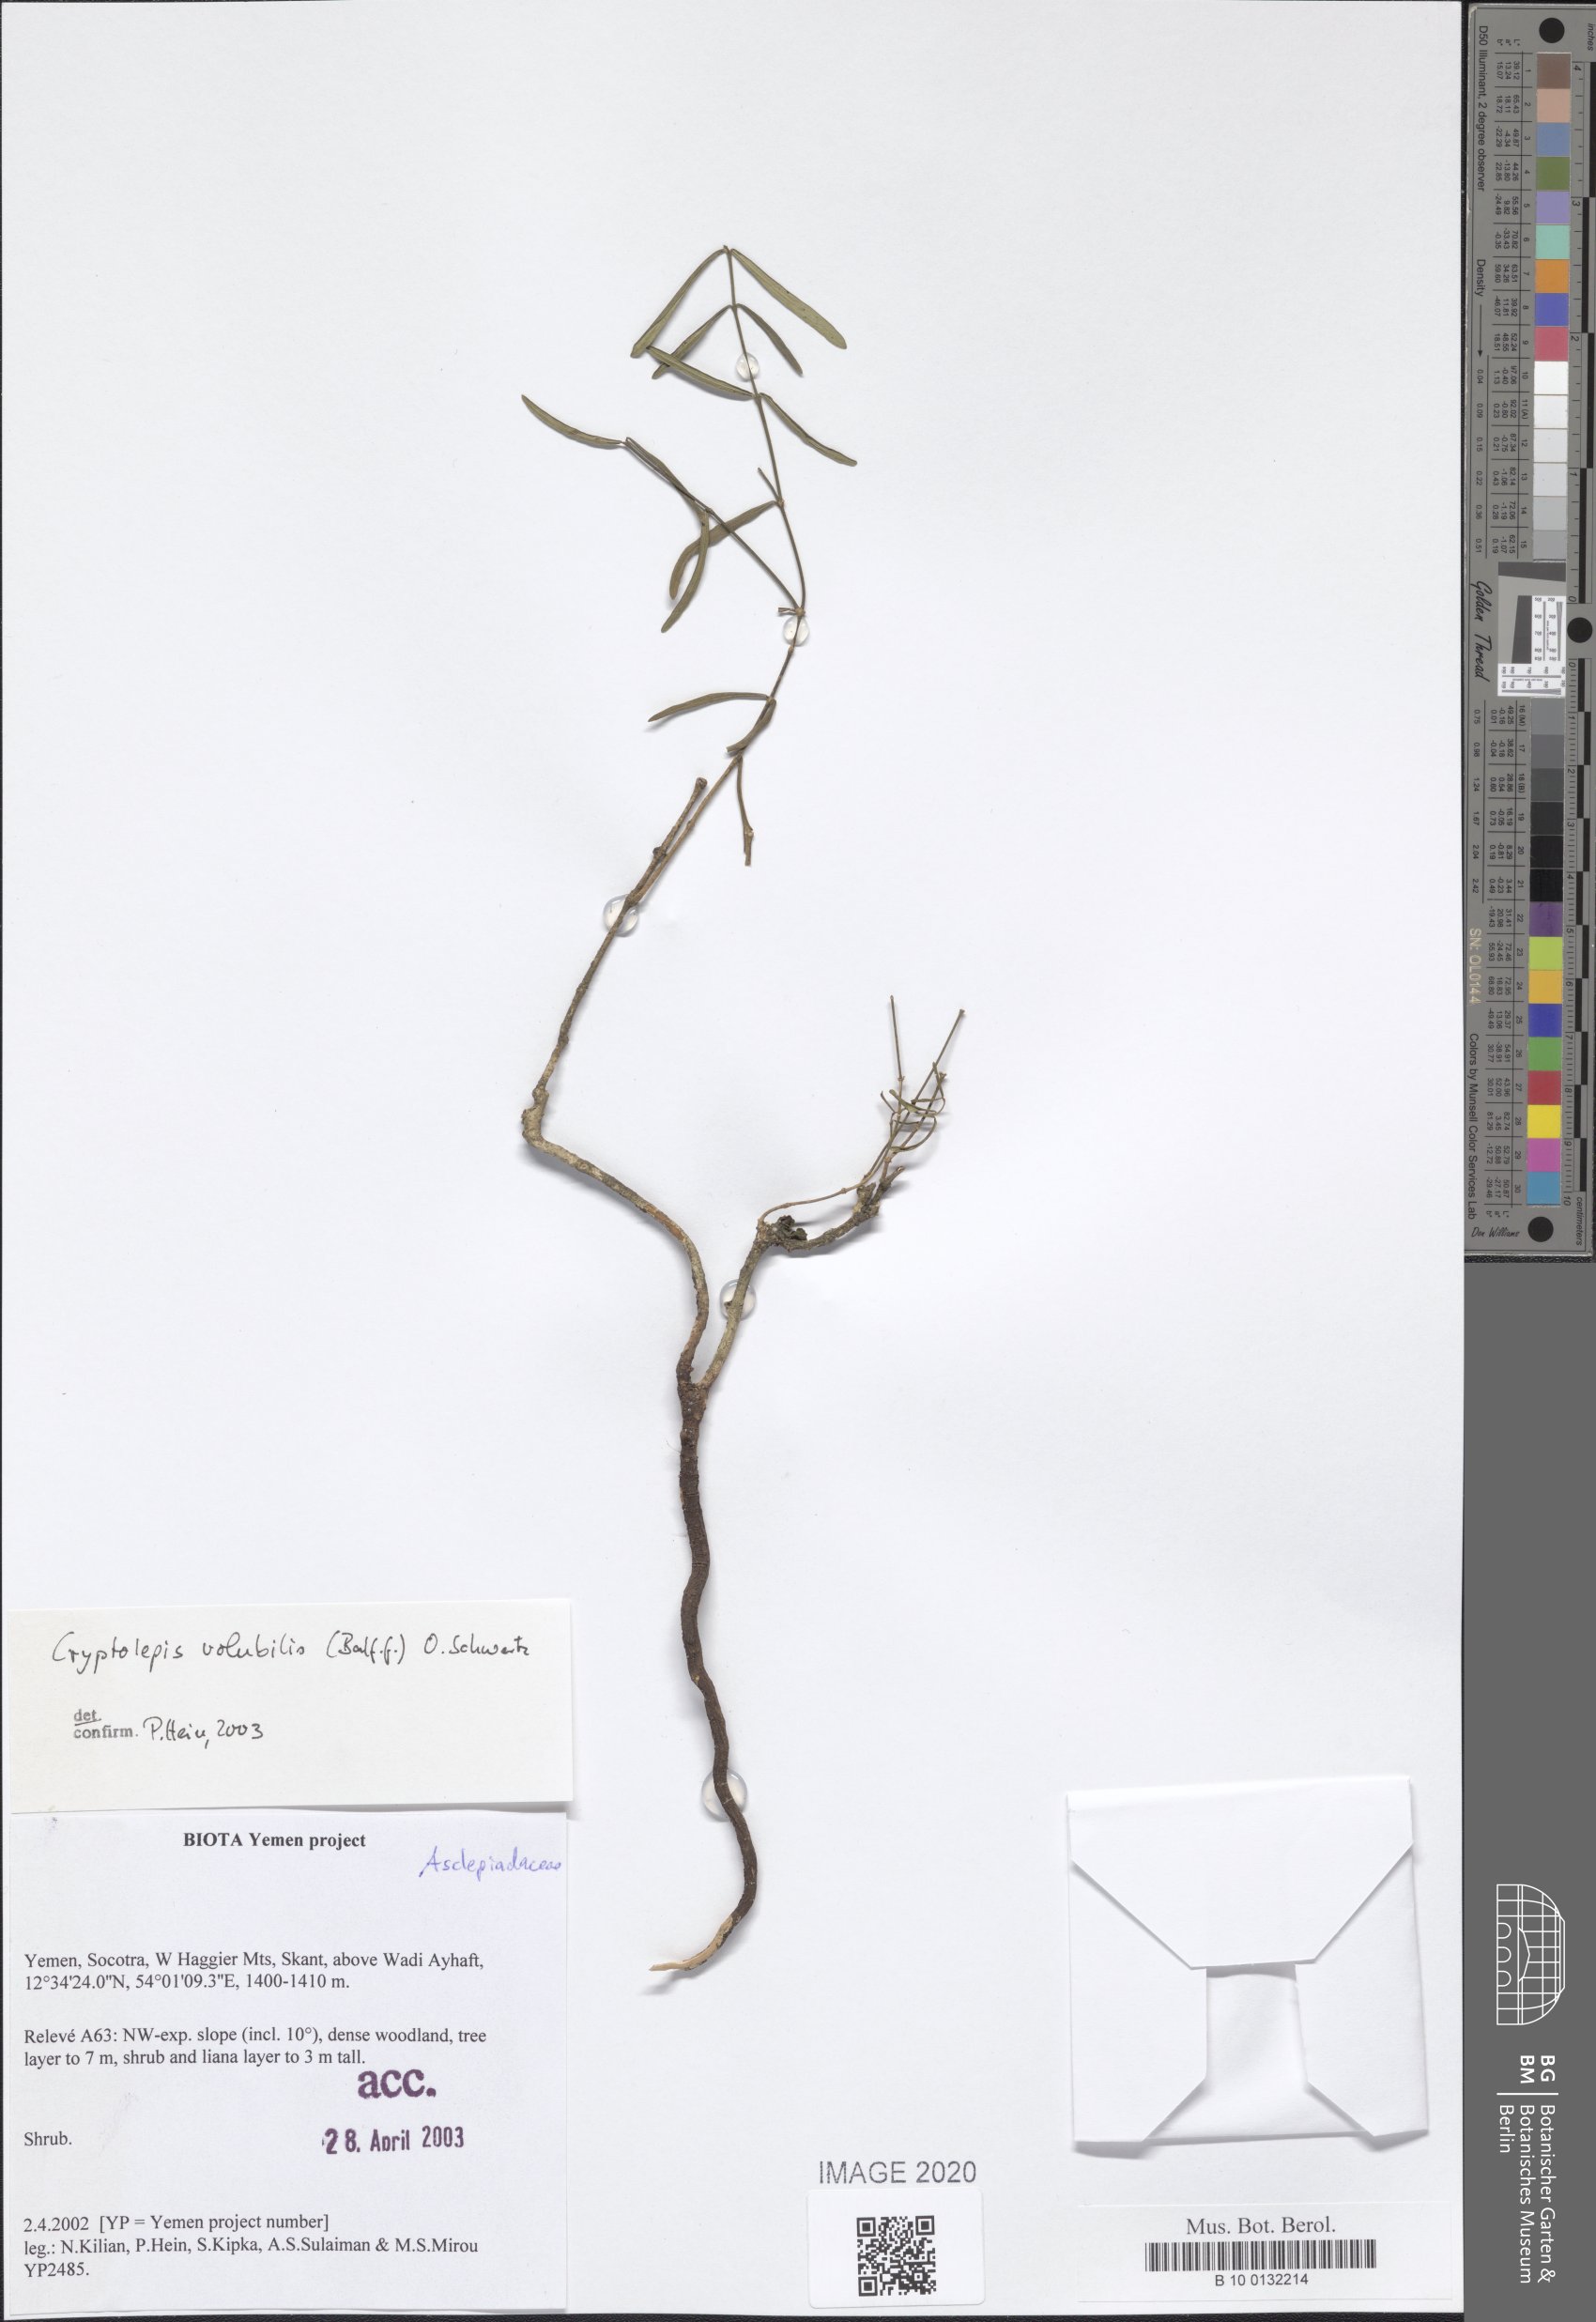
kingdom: Plantae
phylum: Tracheophyta
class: Magnoliopsida
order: Gentianales
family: Apocynaceae
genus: Cryptolepis
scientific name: Cryptolepis volubilis
